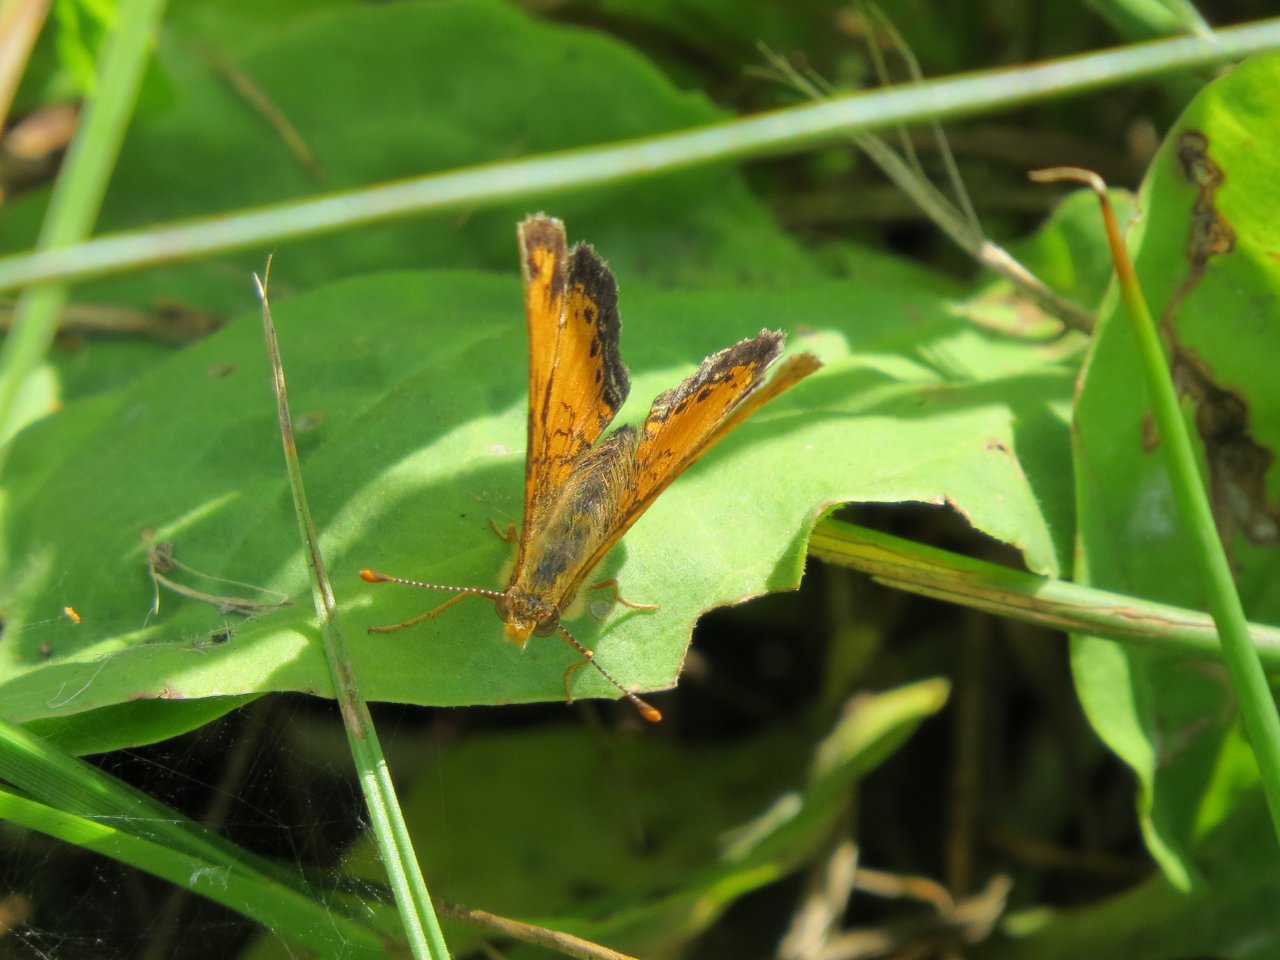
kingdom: Animalia
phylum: Arthropoda
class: Insecta
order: Lepidoptera
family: Nymphalidae
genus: Phyciodes
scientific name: Phyciodes tharos
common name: Northern Crescent
